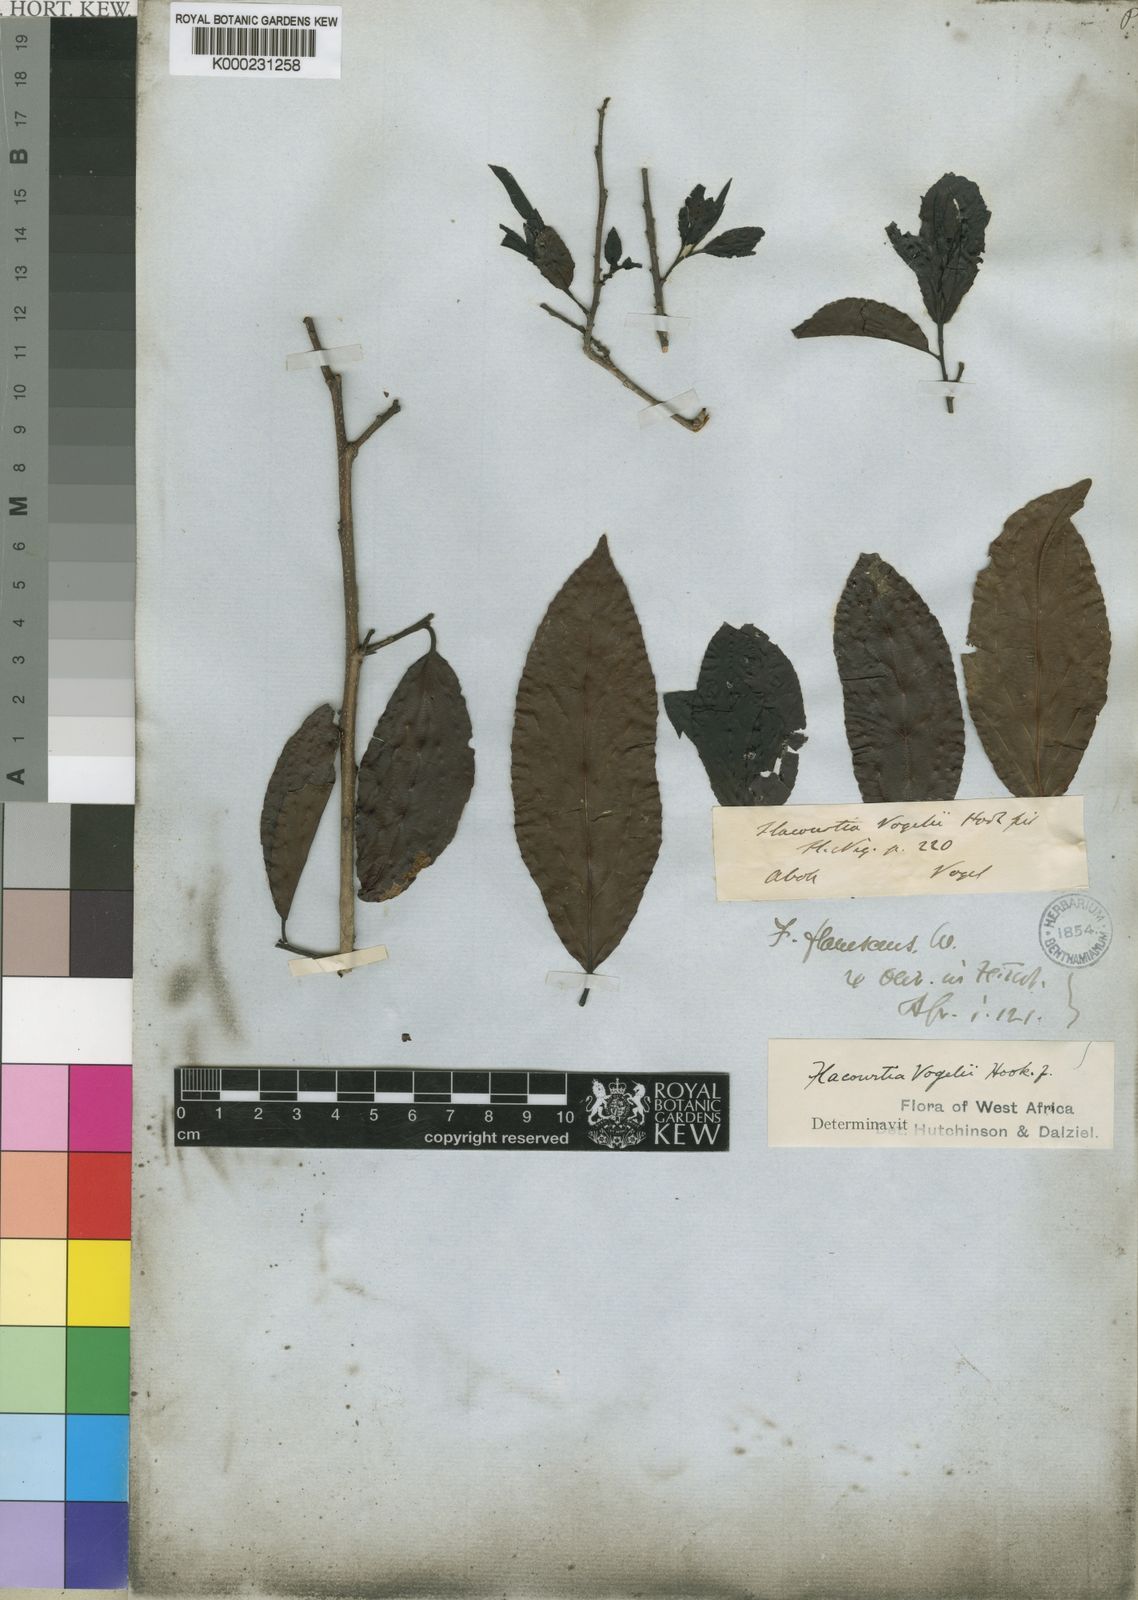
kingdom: Plantae
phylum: Tracheophyta
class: Magnoliopsida
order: Malpighiales
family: Salicaceae
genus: Flacourtia
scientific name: Flacourtia vogelii
